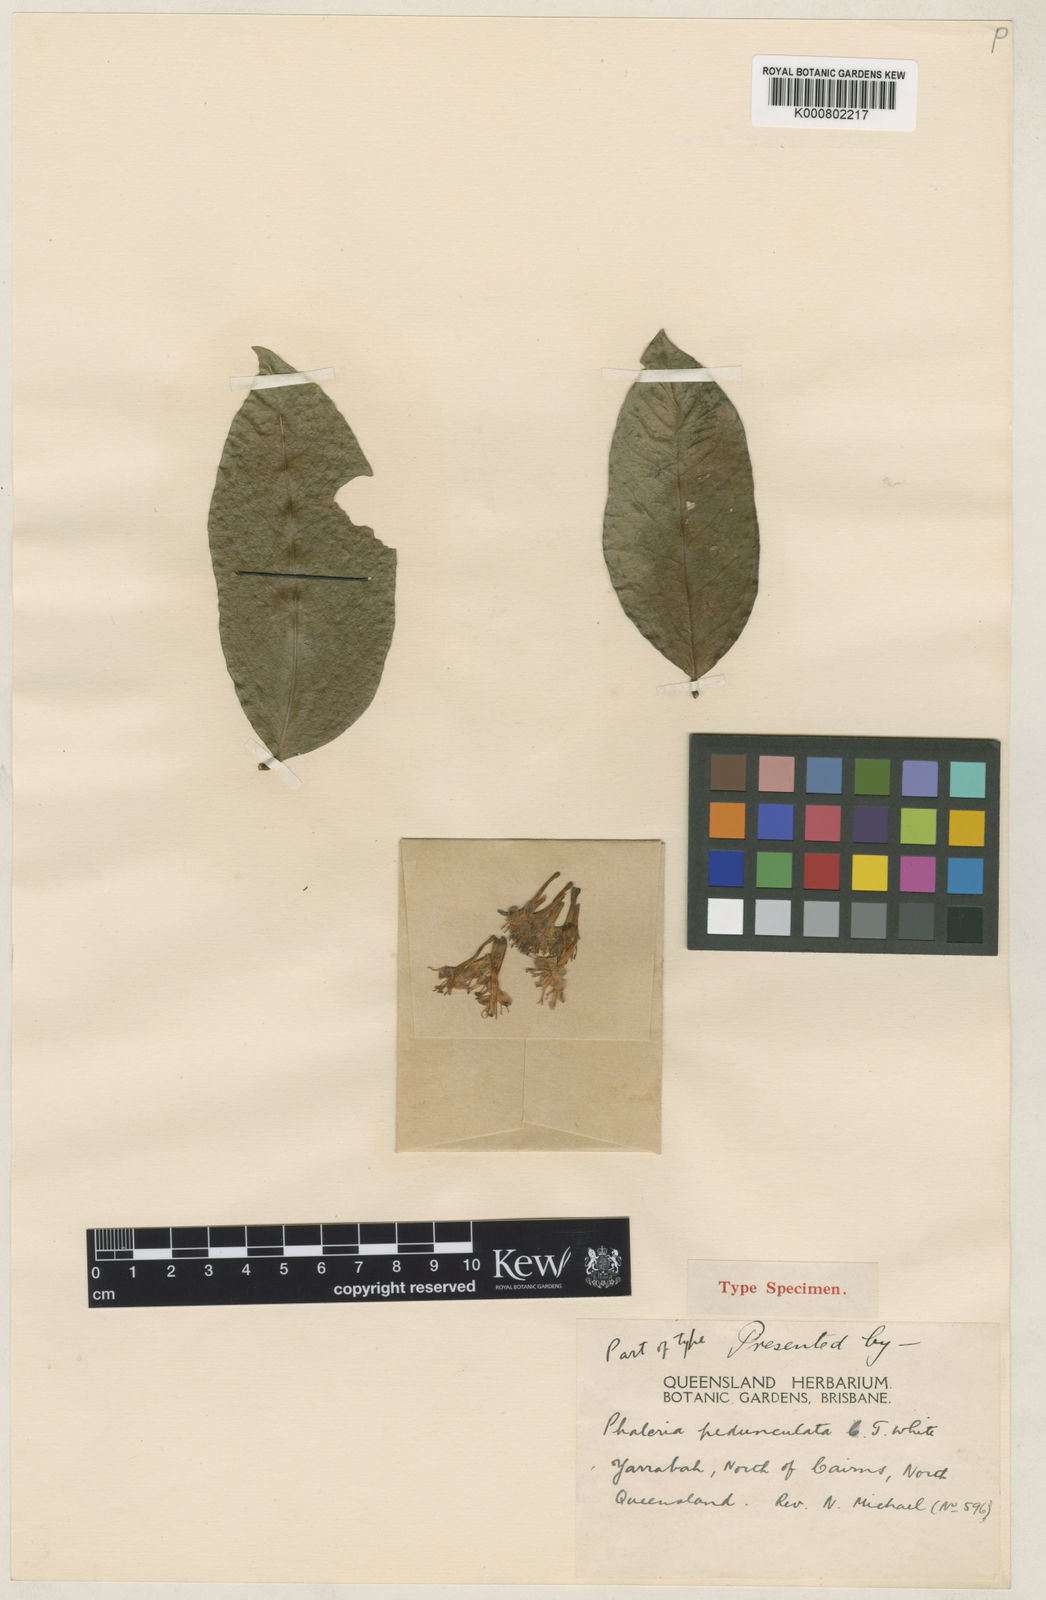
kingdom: Plantae
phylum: Tracheophyta
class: Magnoliopsida
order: Malvales
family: Thymelaeaceae
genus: Phaleria
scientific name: Phaleria octandra
